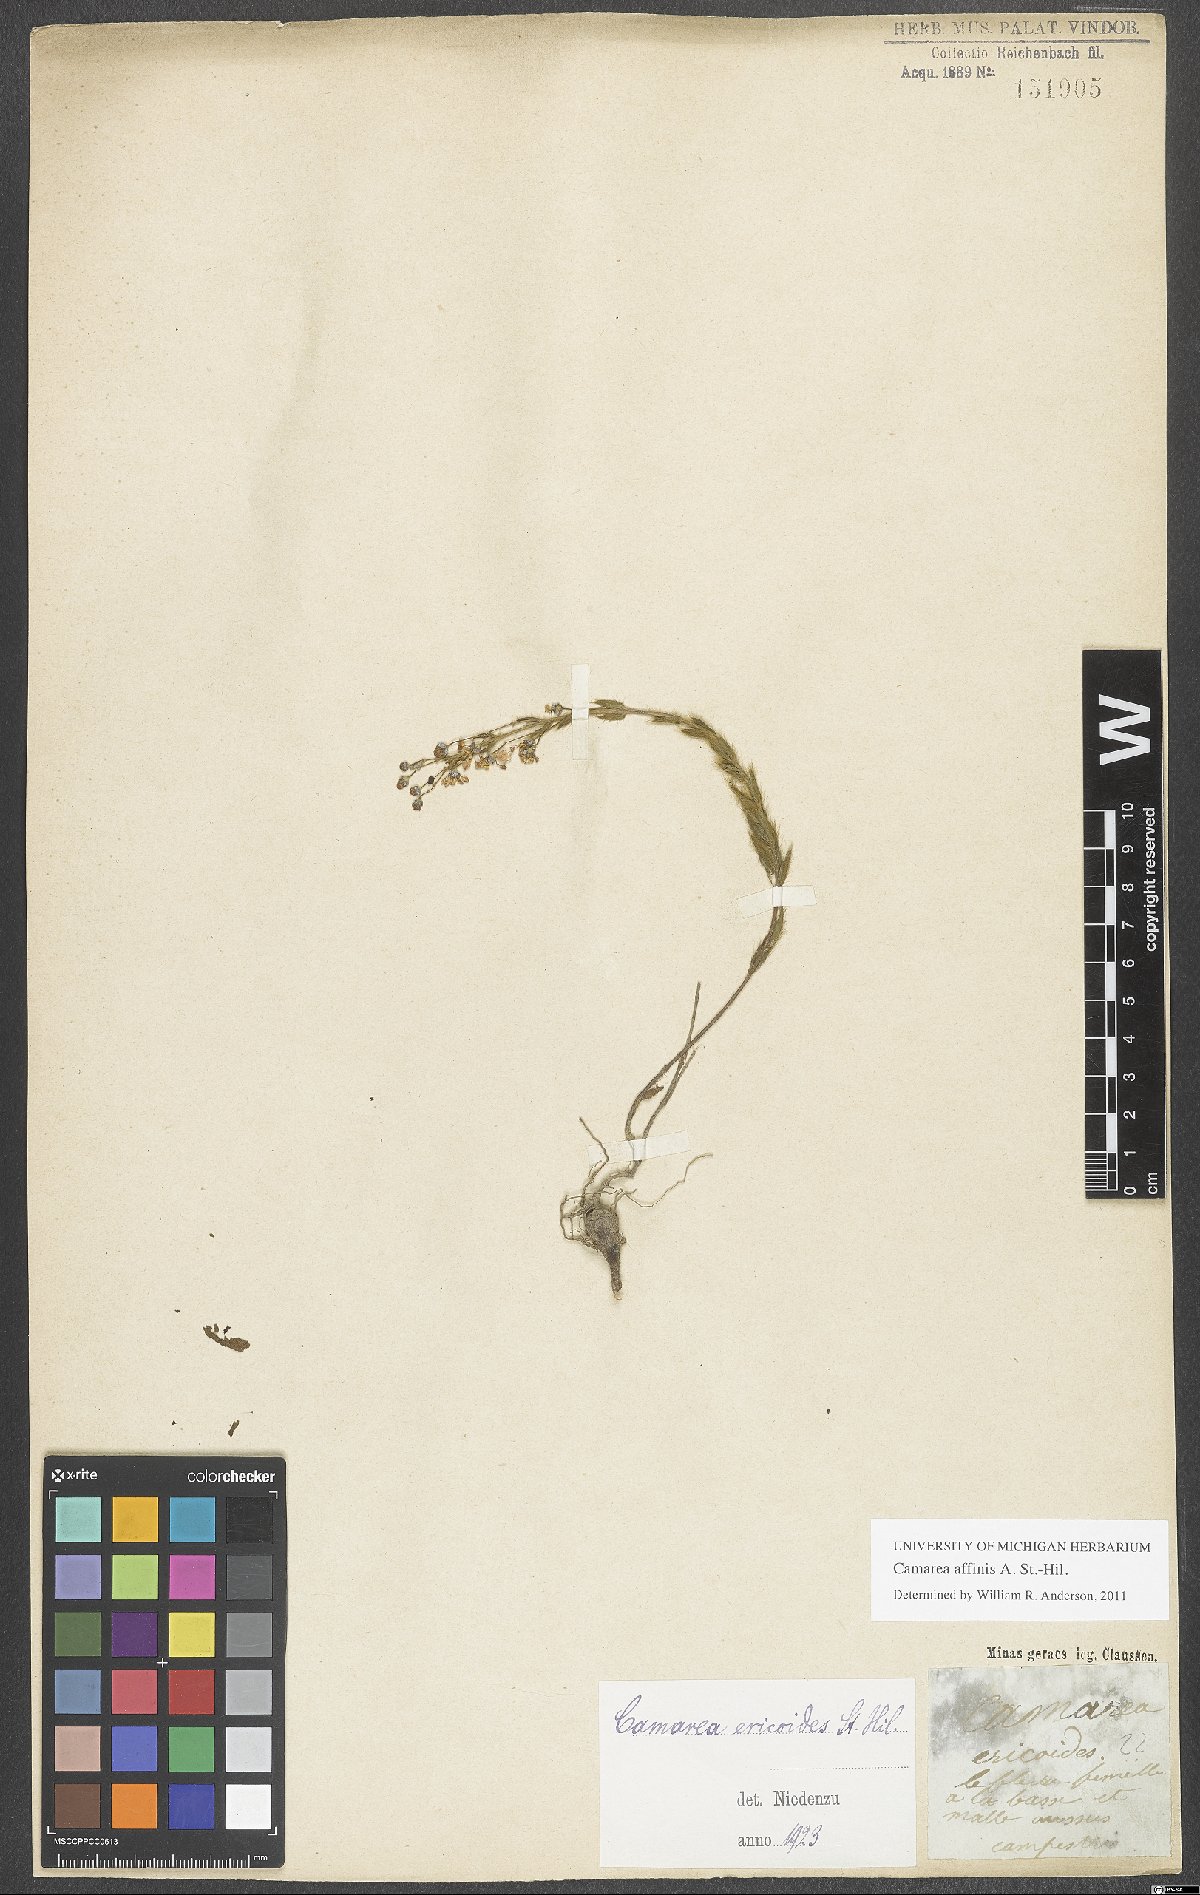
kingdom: Plantae
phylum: Tracheophyta
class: Magnoliopsida
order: Malpighiales
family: Malpighiaceae
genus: Camarea
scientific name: Camarea affinis
